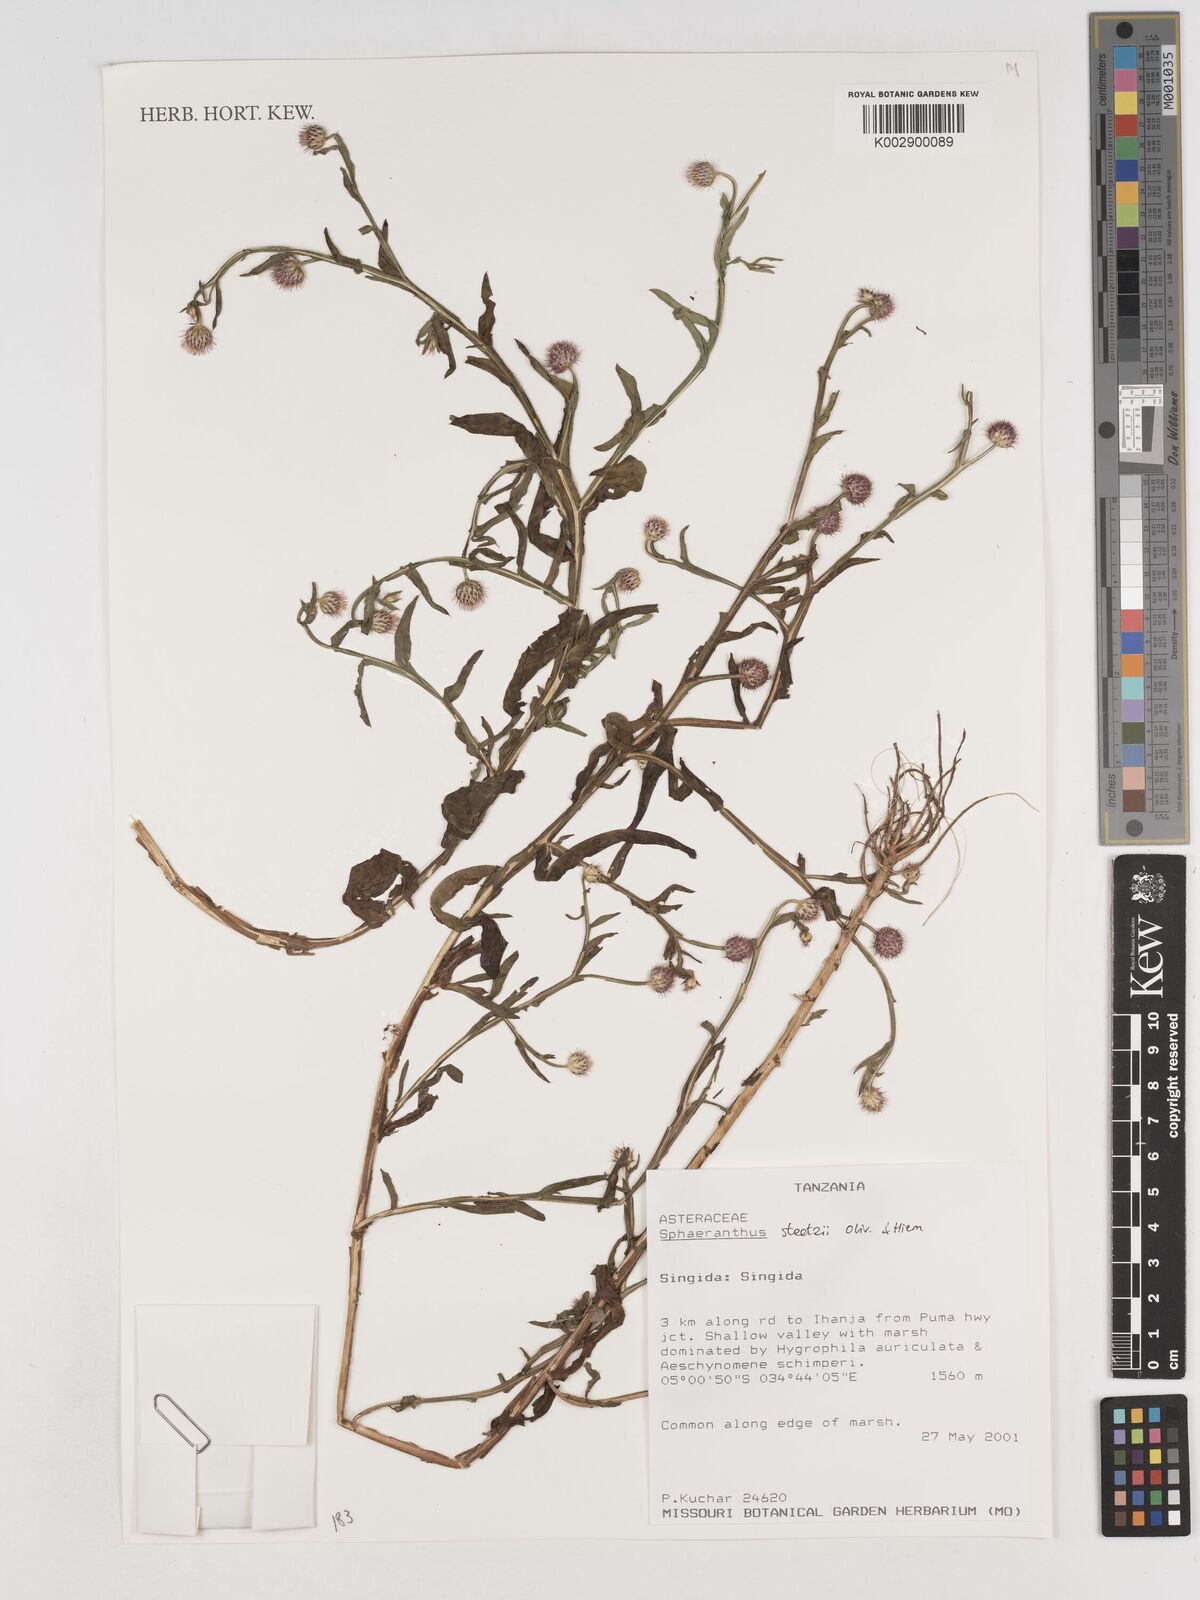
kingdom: Plantae
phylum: Tracheophyta
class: Magnoliopsida
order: Asterales
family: Asteraceae
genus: Sphaeranthus
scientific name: Sphaeranthus steetzii
